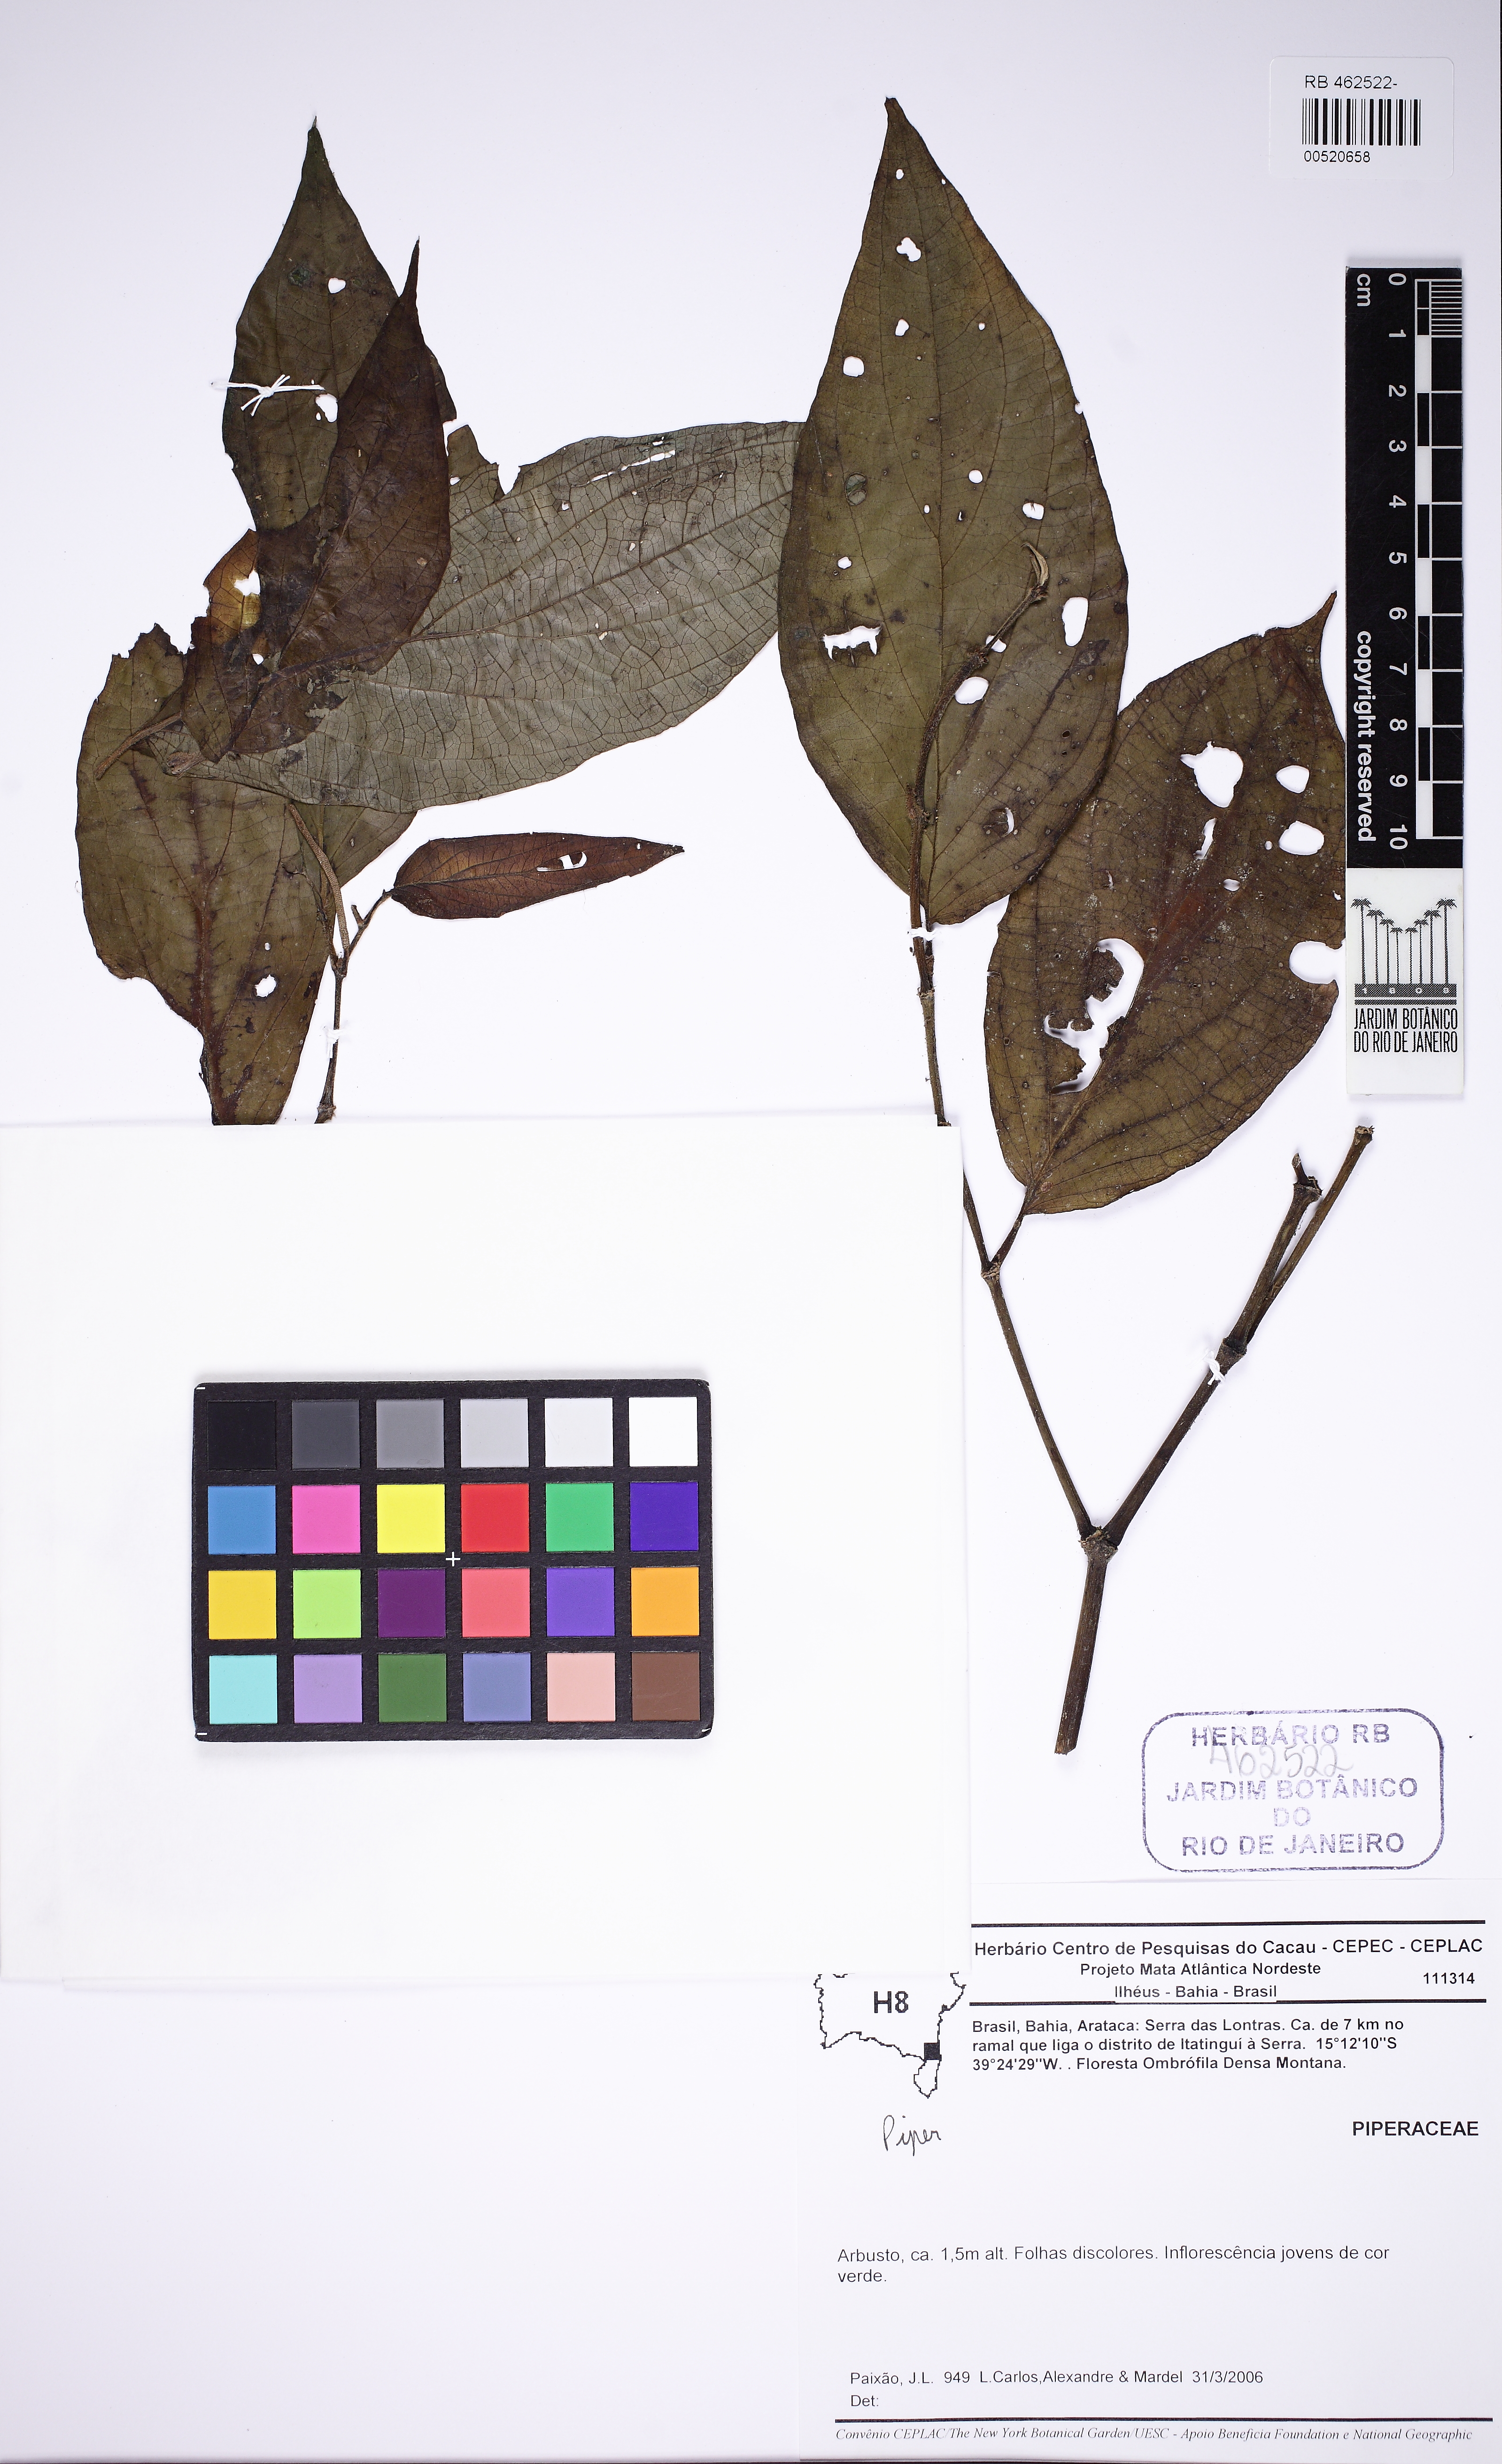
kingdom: Plantae
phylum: Tracheophyta
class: Magnoliopsida
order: Piperales
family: Piperaceae
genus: Peperomia
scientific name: Peperomia
